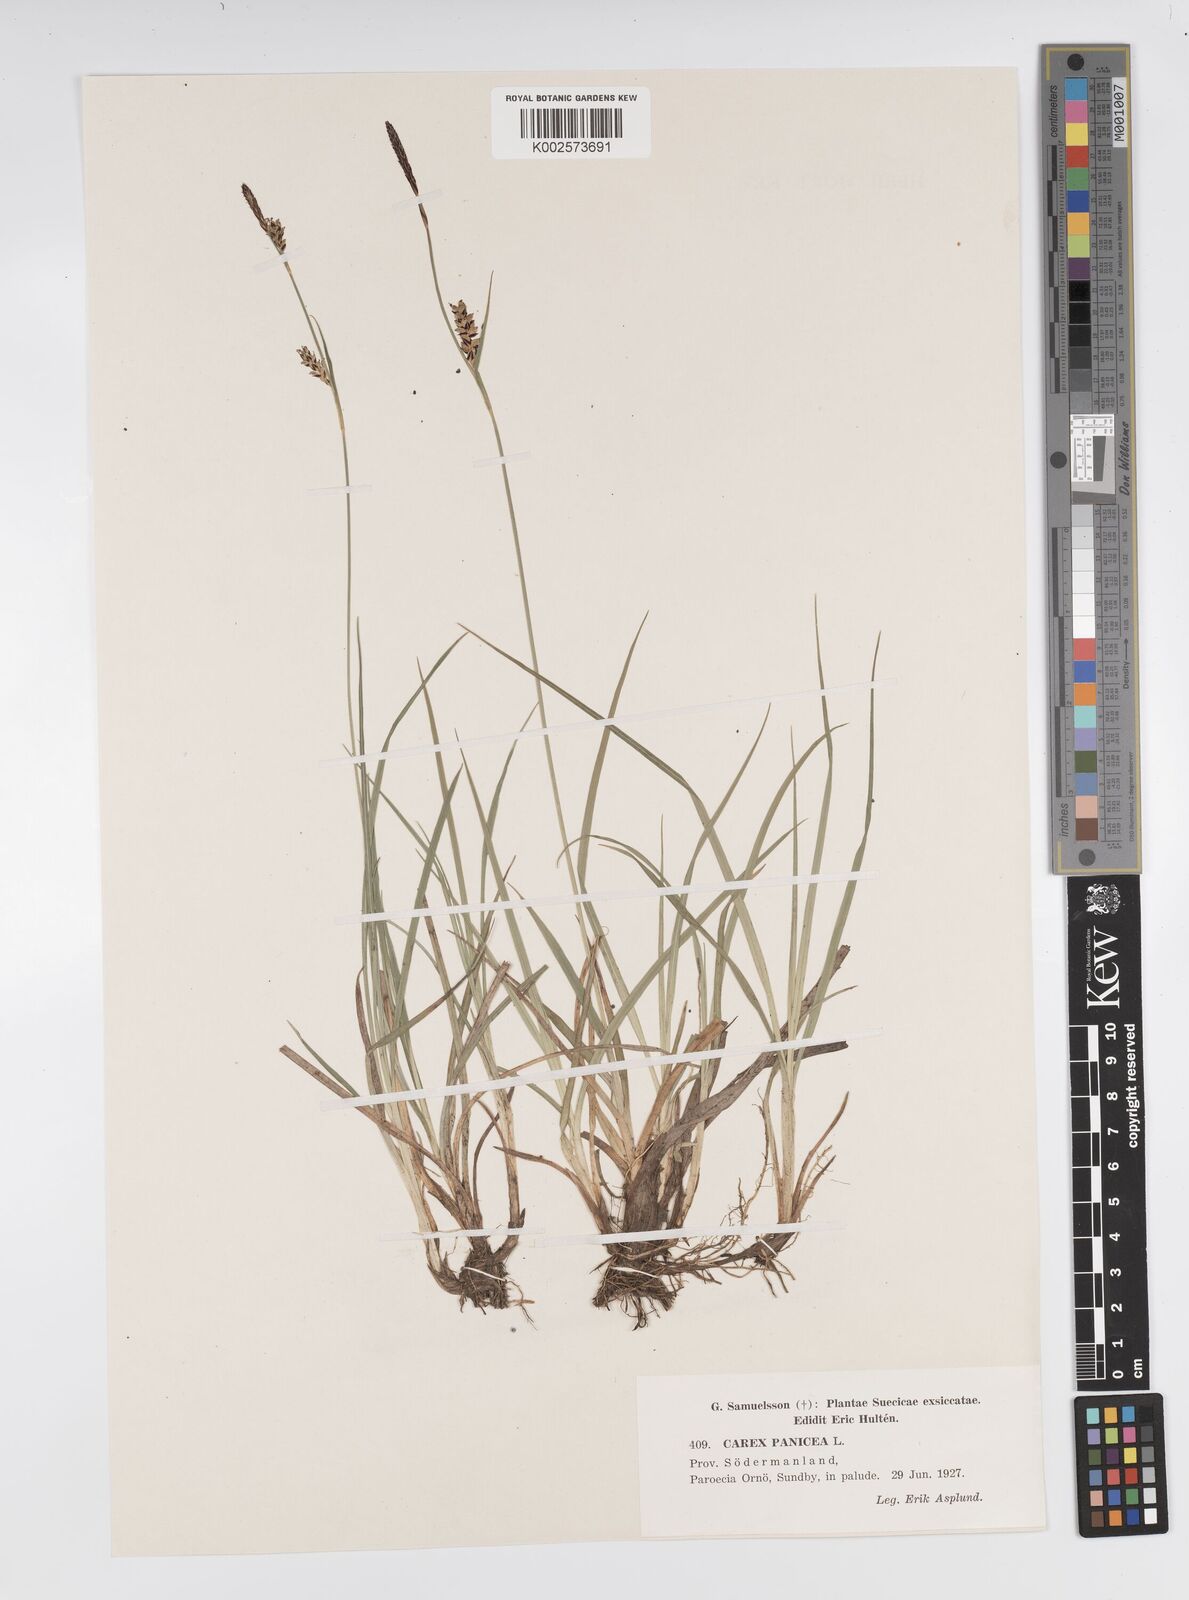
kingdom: Plantae
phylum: Tracheophyta
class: Liliopsida
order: Poales
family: Cyperaceae
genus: Carex
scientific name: Carex panicea
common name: Carnation sedge
